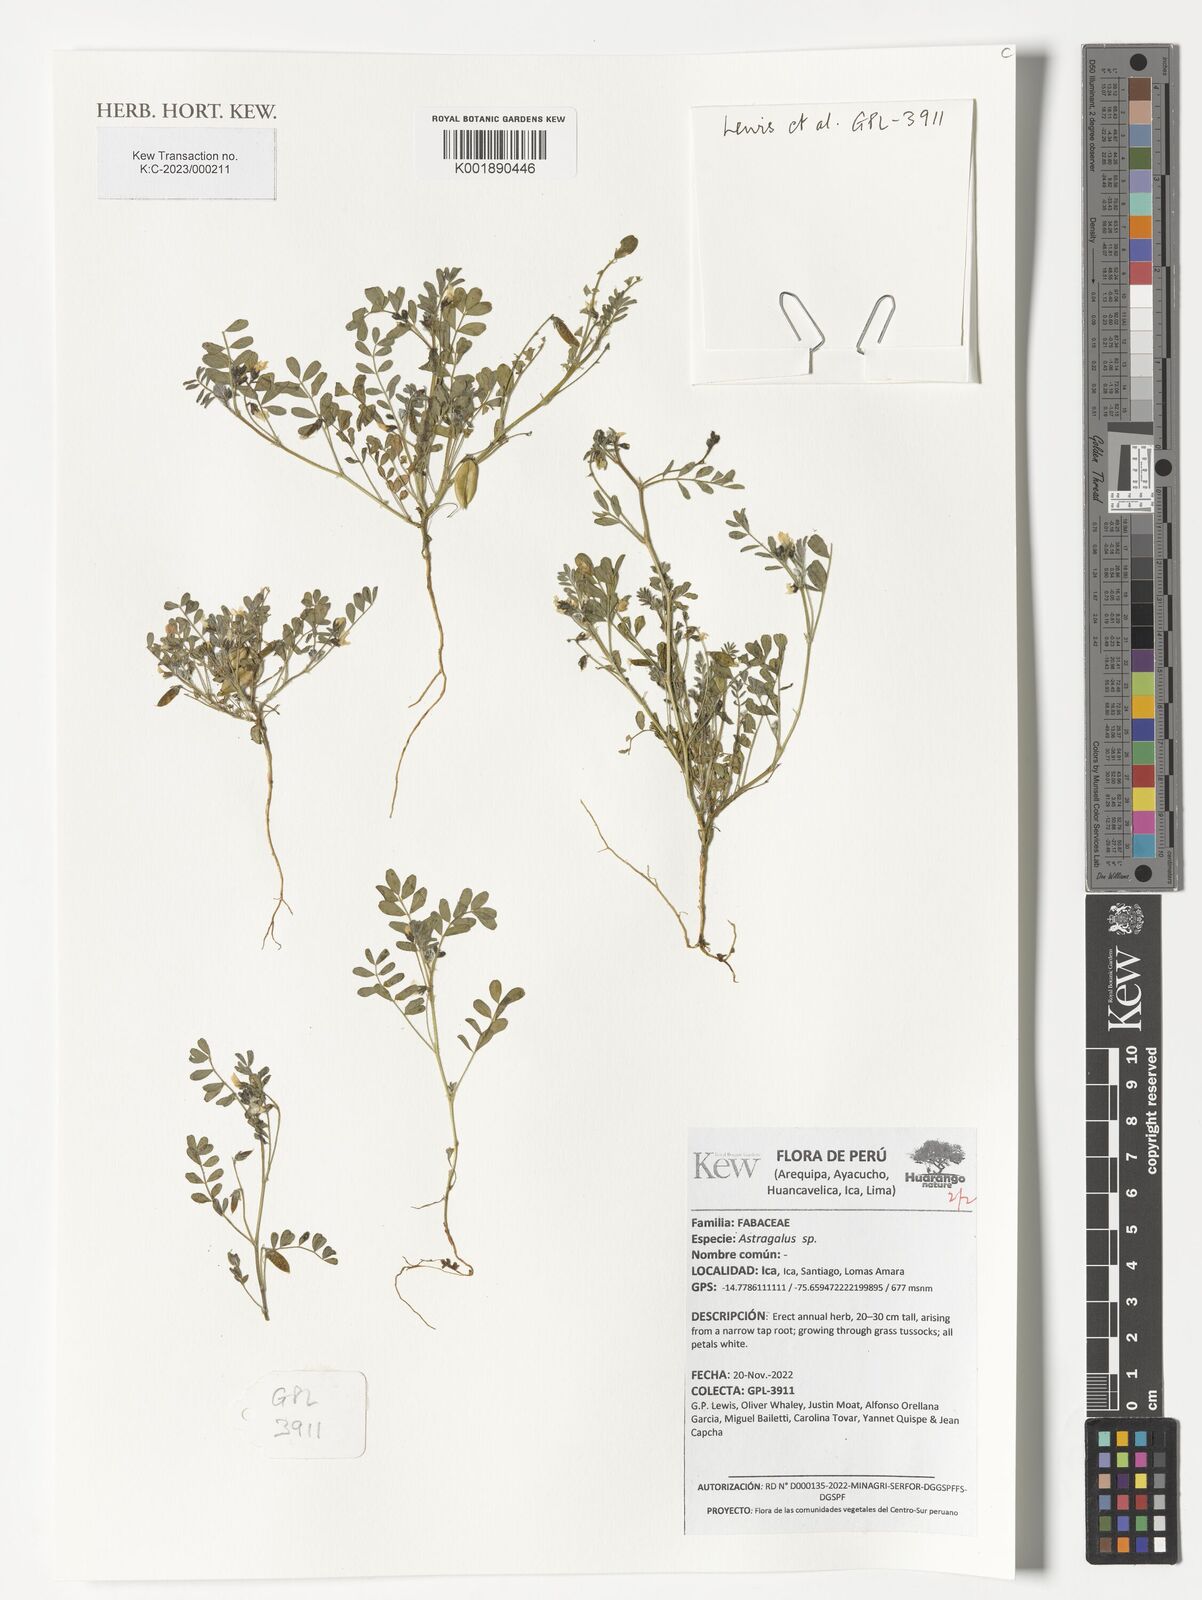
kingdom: Plantae
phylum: Tracheophyta
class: Magnoliopsida
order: Fabales
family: Fabaceae
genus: Astragalus
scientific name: Astragalus
